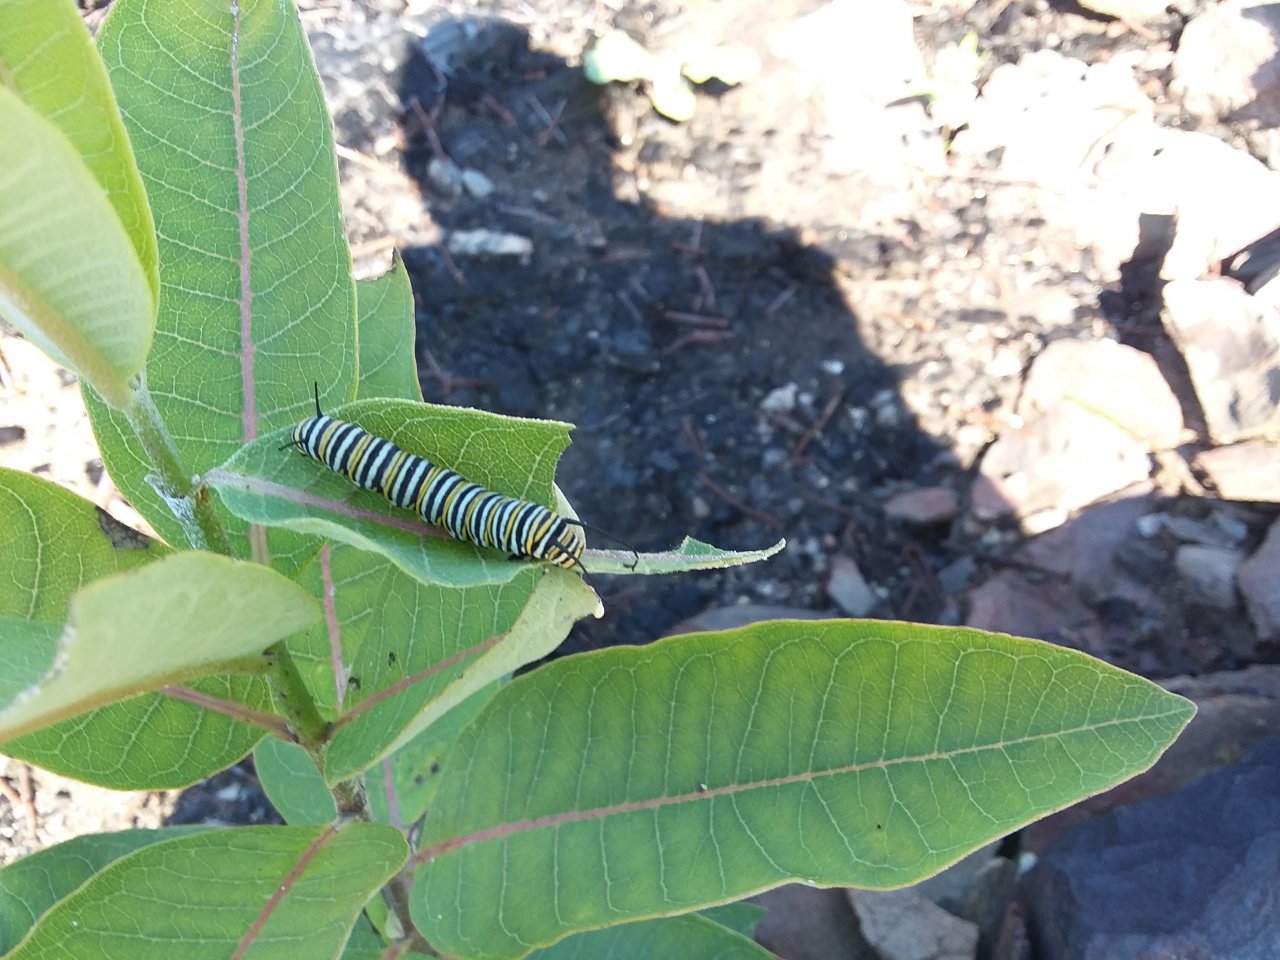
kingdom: Animalia
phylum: Arthropoda
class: Insecta
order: Lepidoptera
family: Nymphalidae
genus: Danaus
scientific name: Danaus plexippus
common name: Monarch
